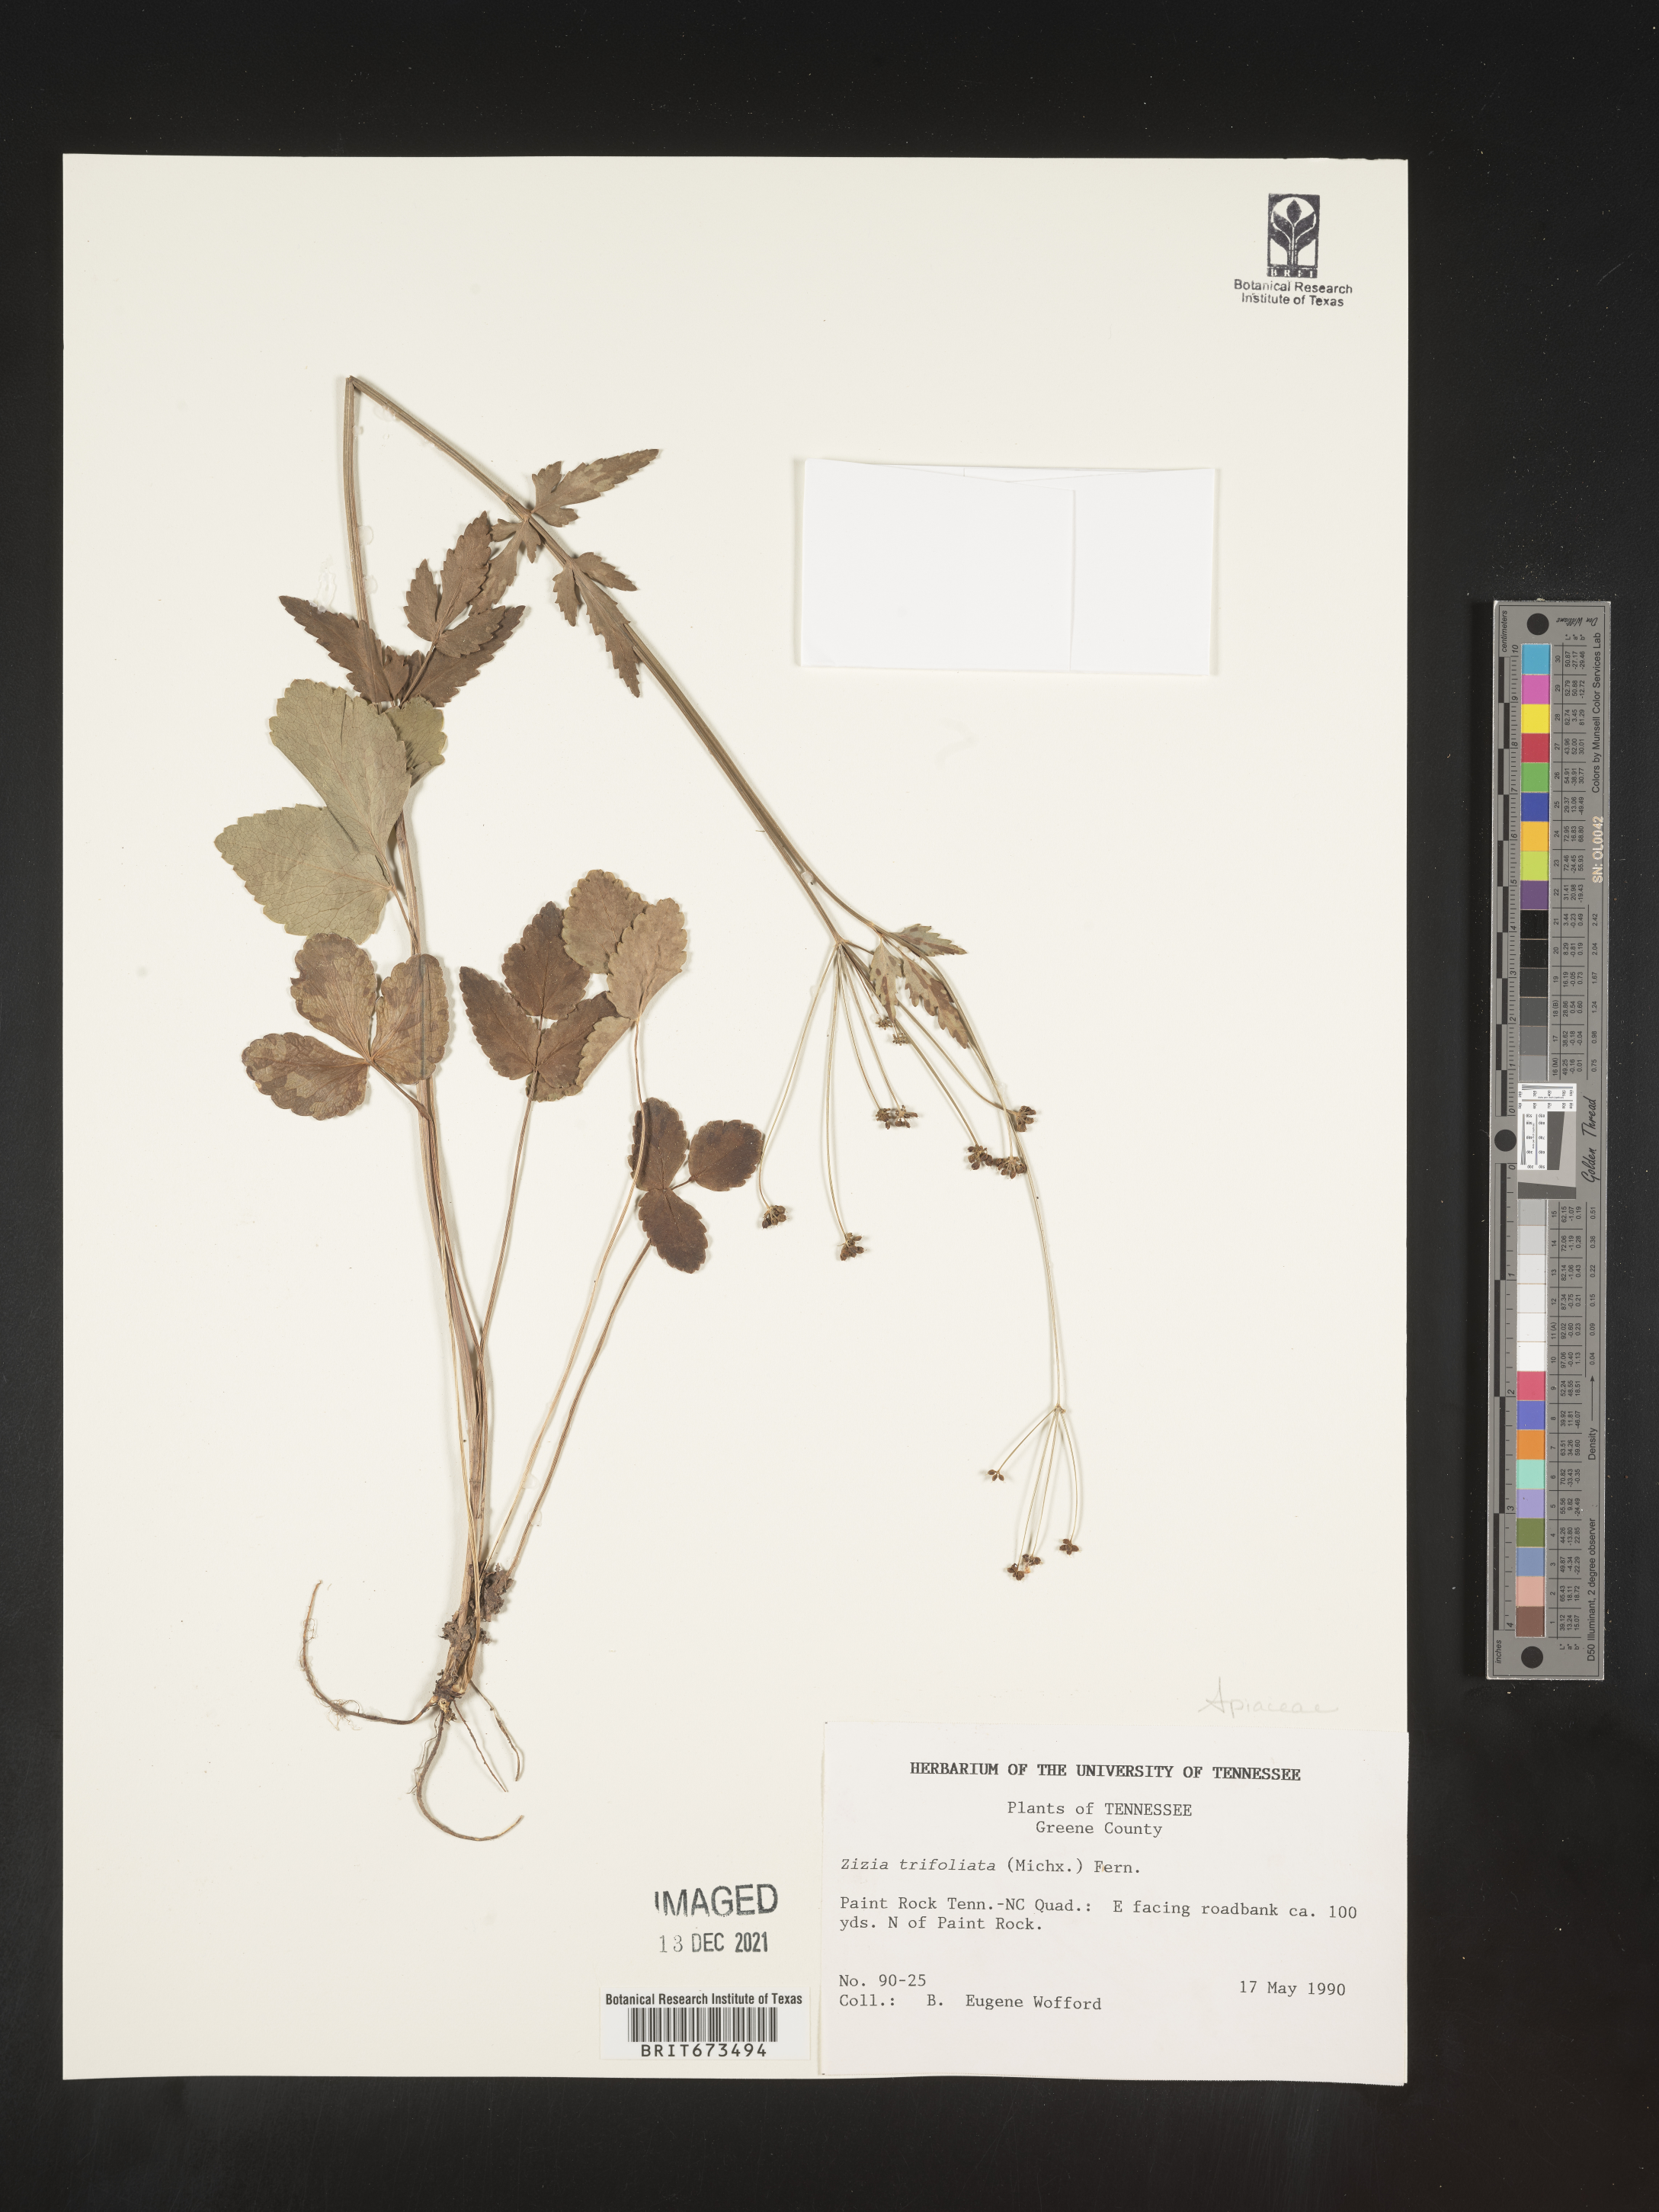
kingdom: Plantae
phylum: Tracheophyta
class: Magnoliopsida
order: Apiales
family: Apiaceae
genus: Zizia
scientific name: Zizia trifoliata
